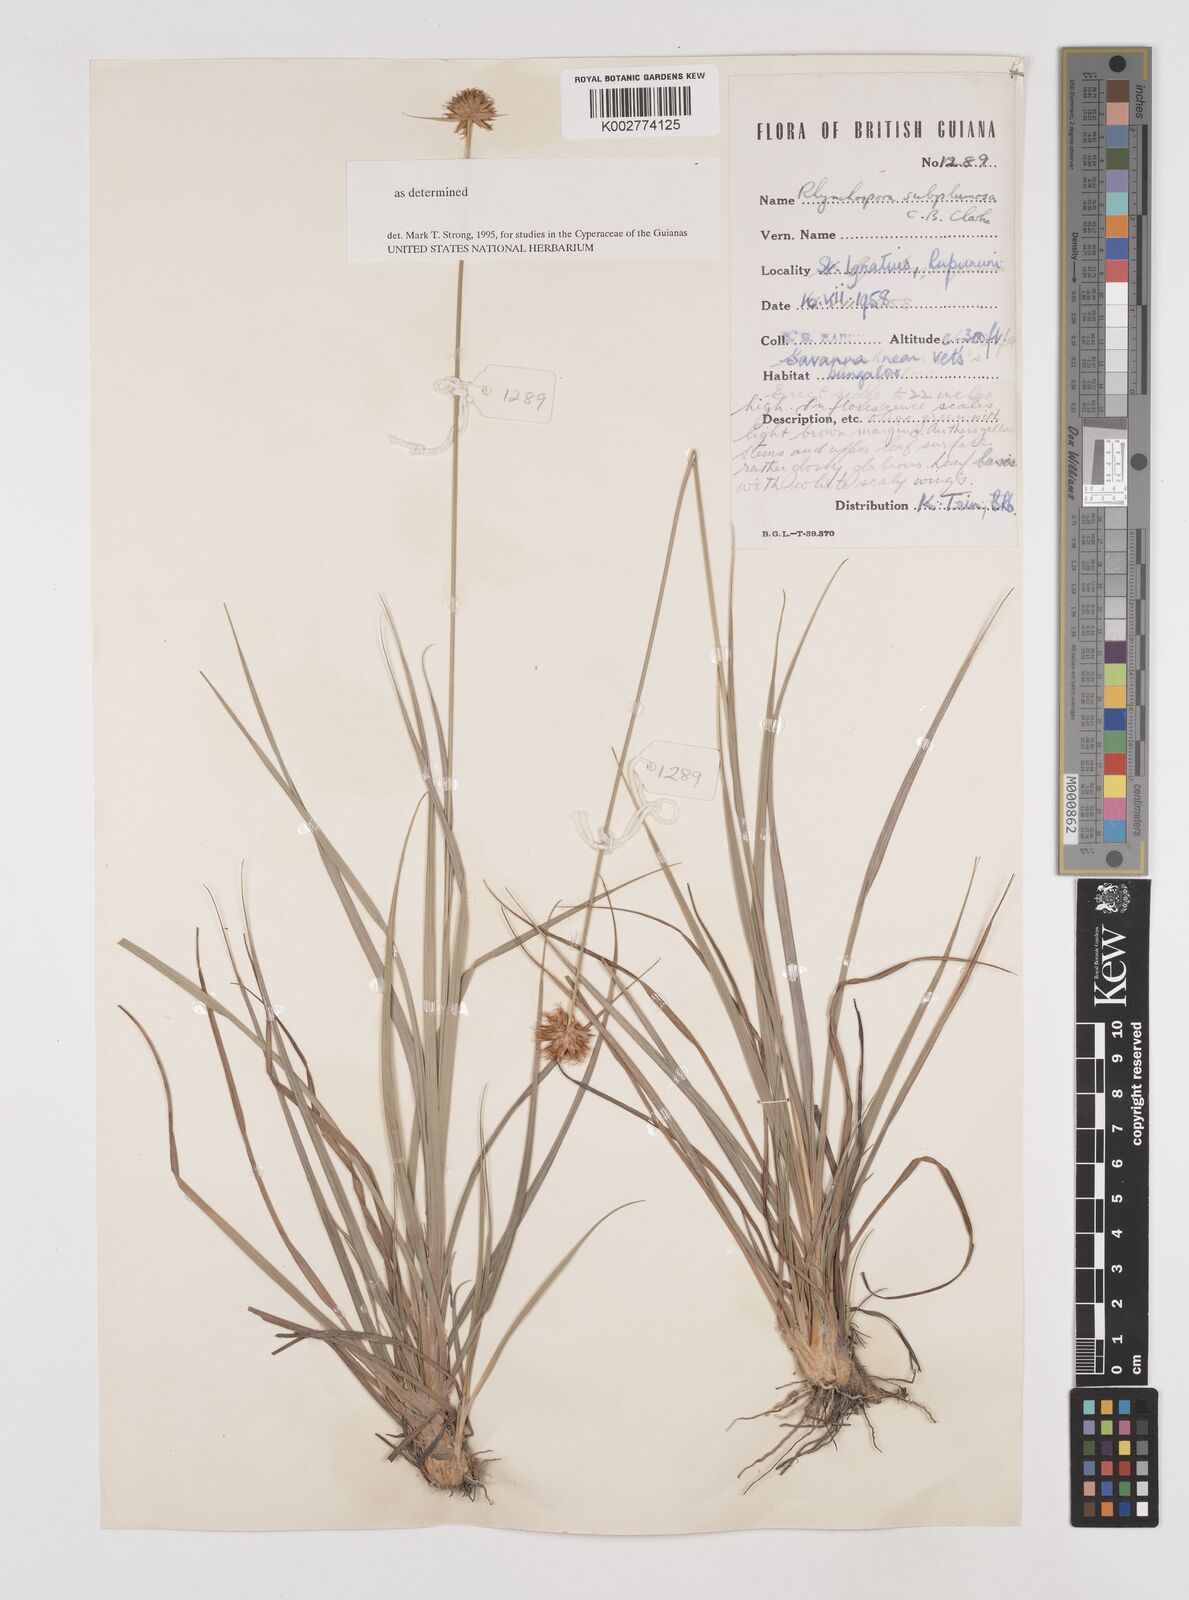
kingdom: Plantae
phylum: Tracheophyta
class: Liliopsida
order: Poales
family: Cyperaceae
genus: Rhynchospora
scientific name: Rhynchospora subplumosa
